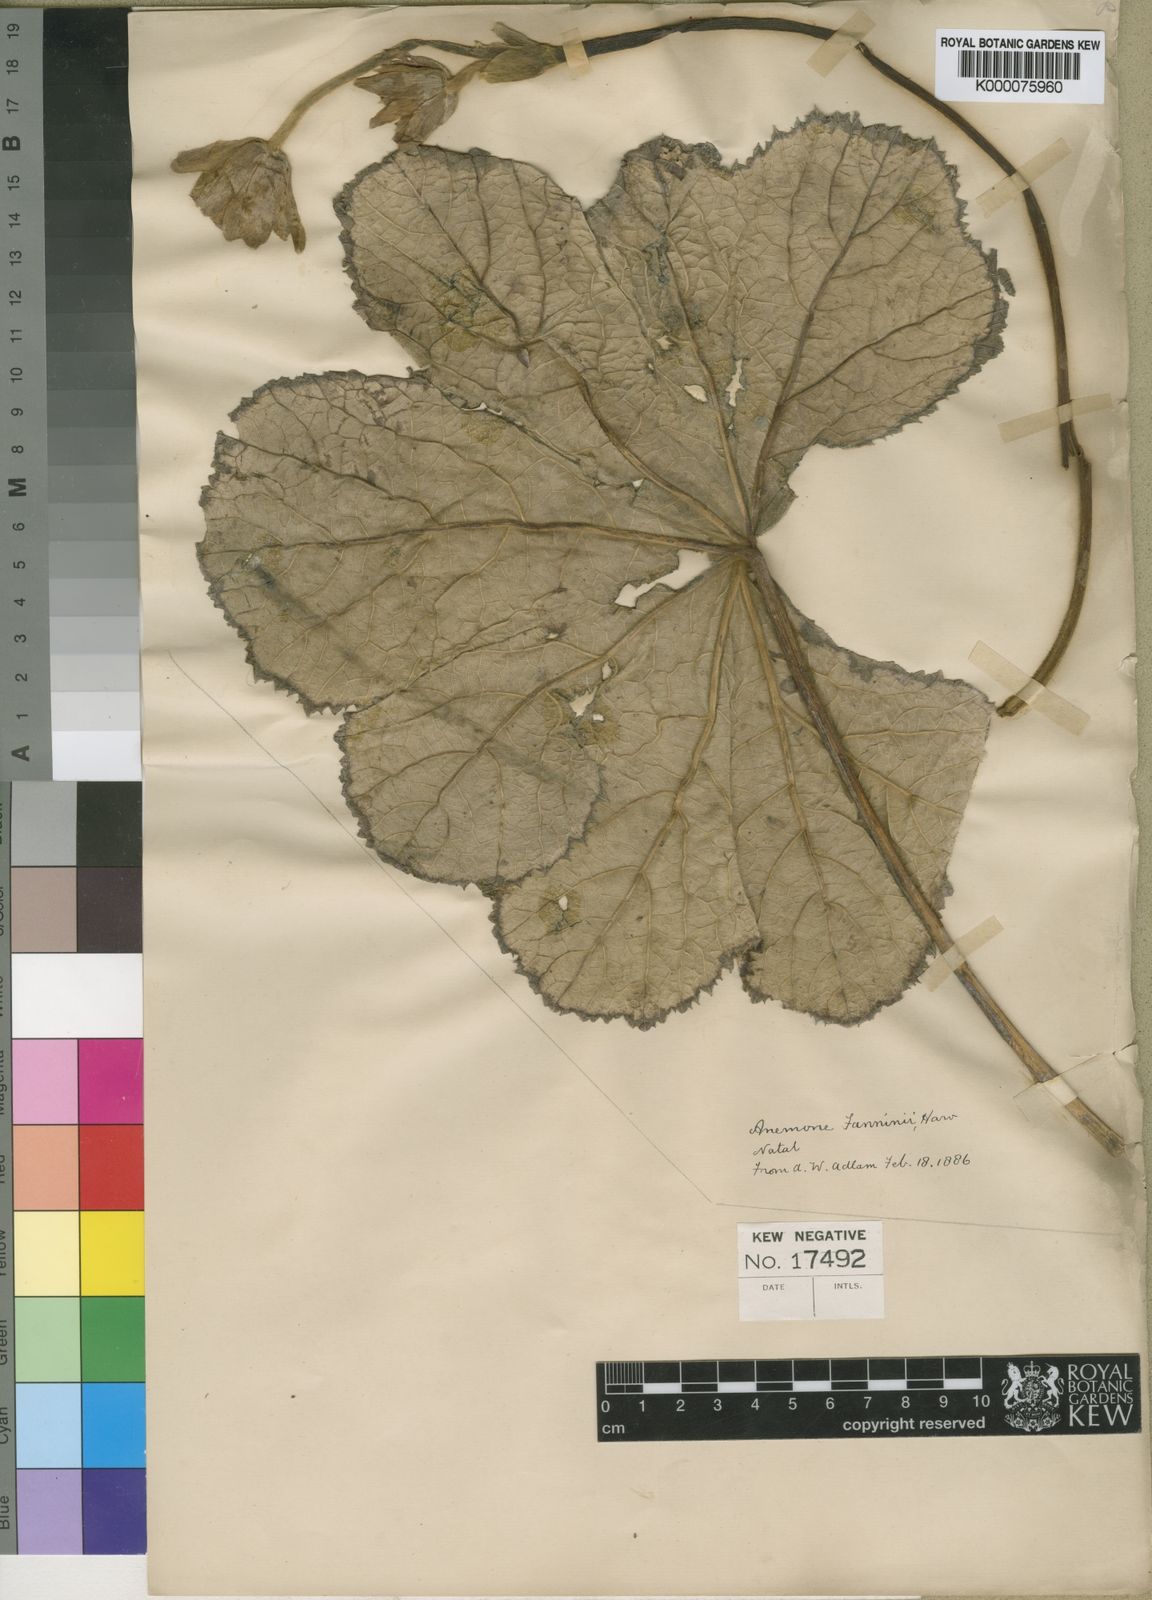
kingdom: Plantae
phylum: Tracheophyta
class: Magnoliopsida
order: Ranunculales
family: Ranunculaceae
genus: Knowltonia
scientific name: Knowltonia fanninii
